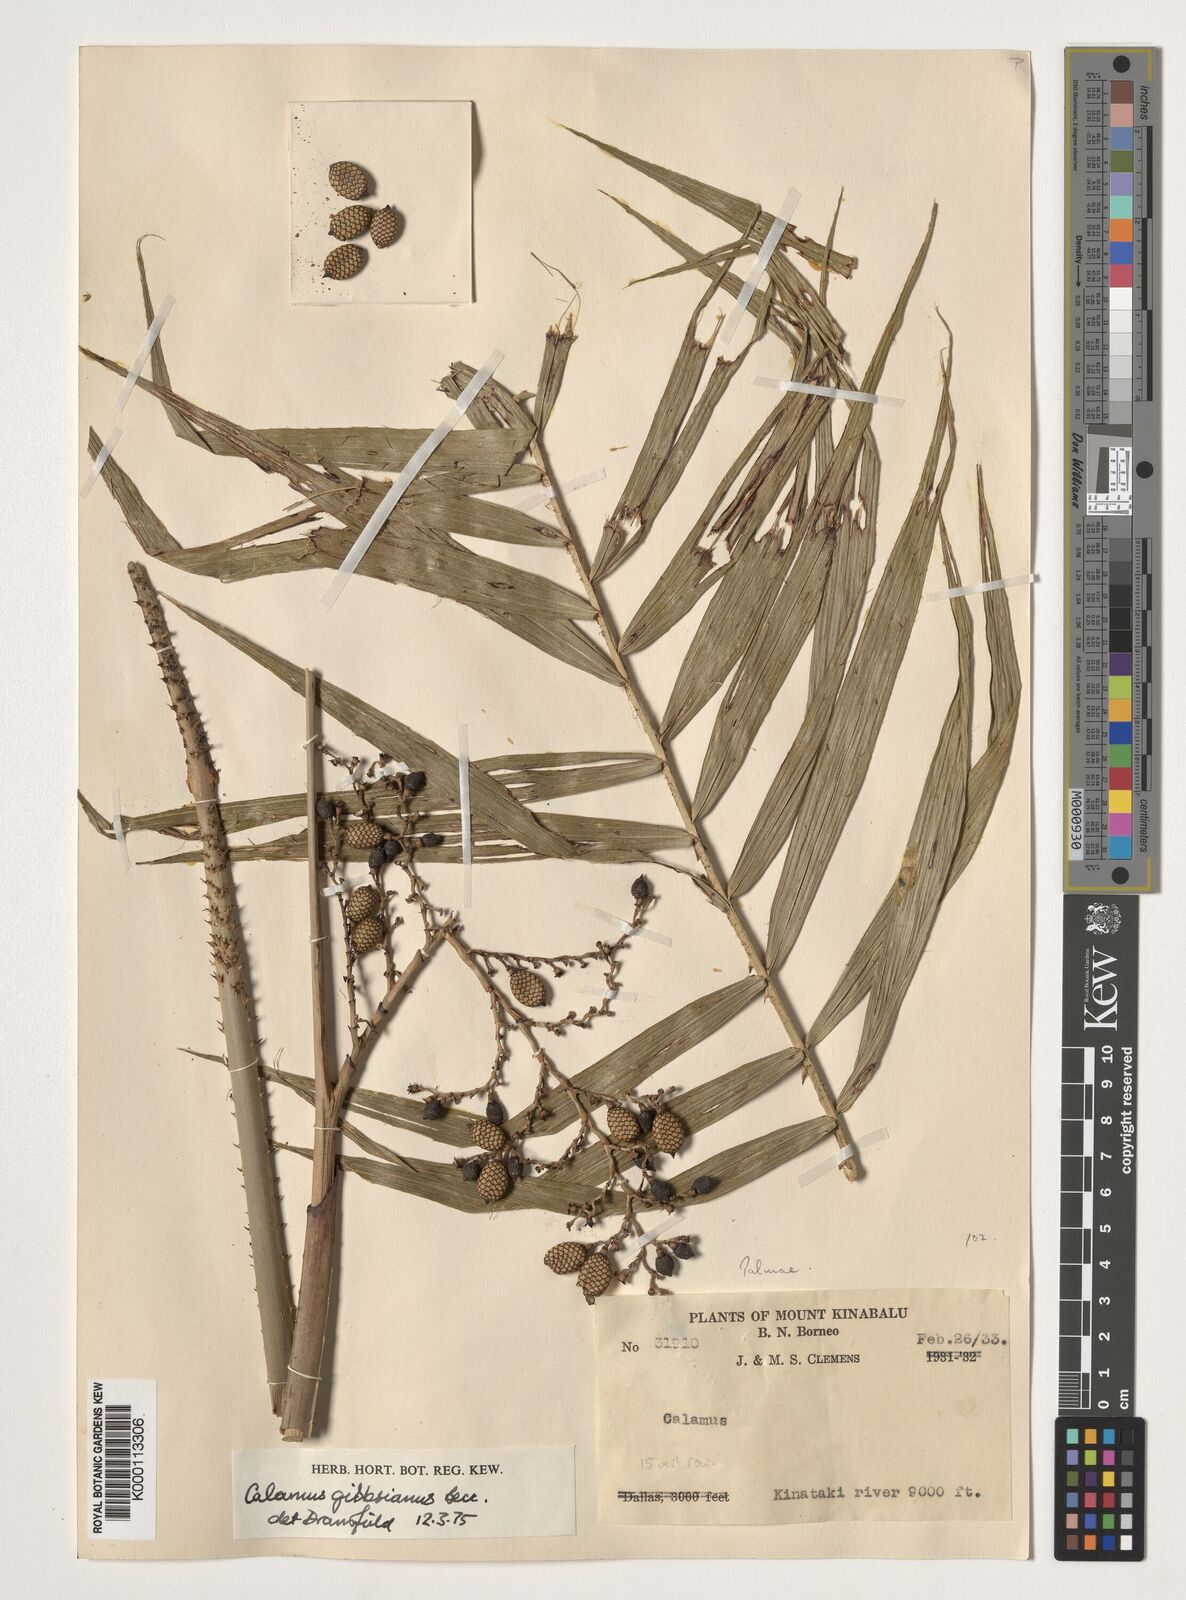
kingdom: Plantae
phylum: Tracheophyta
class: Liliopsida
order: Arecales
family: Arecaceae
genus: Calamus
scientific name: Calamus gibbsianus
